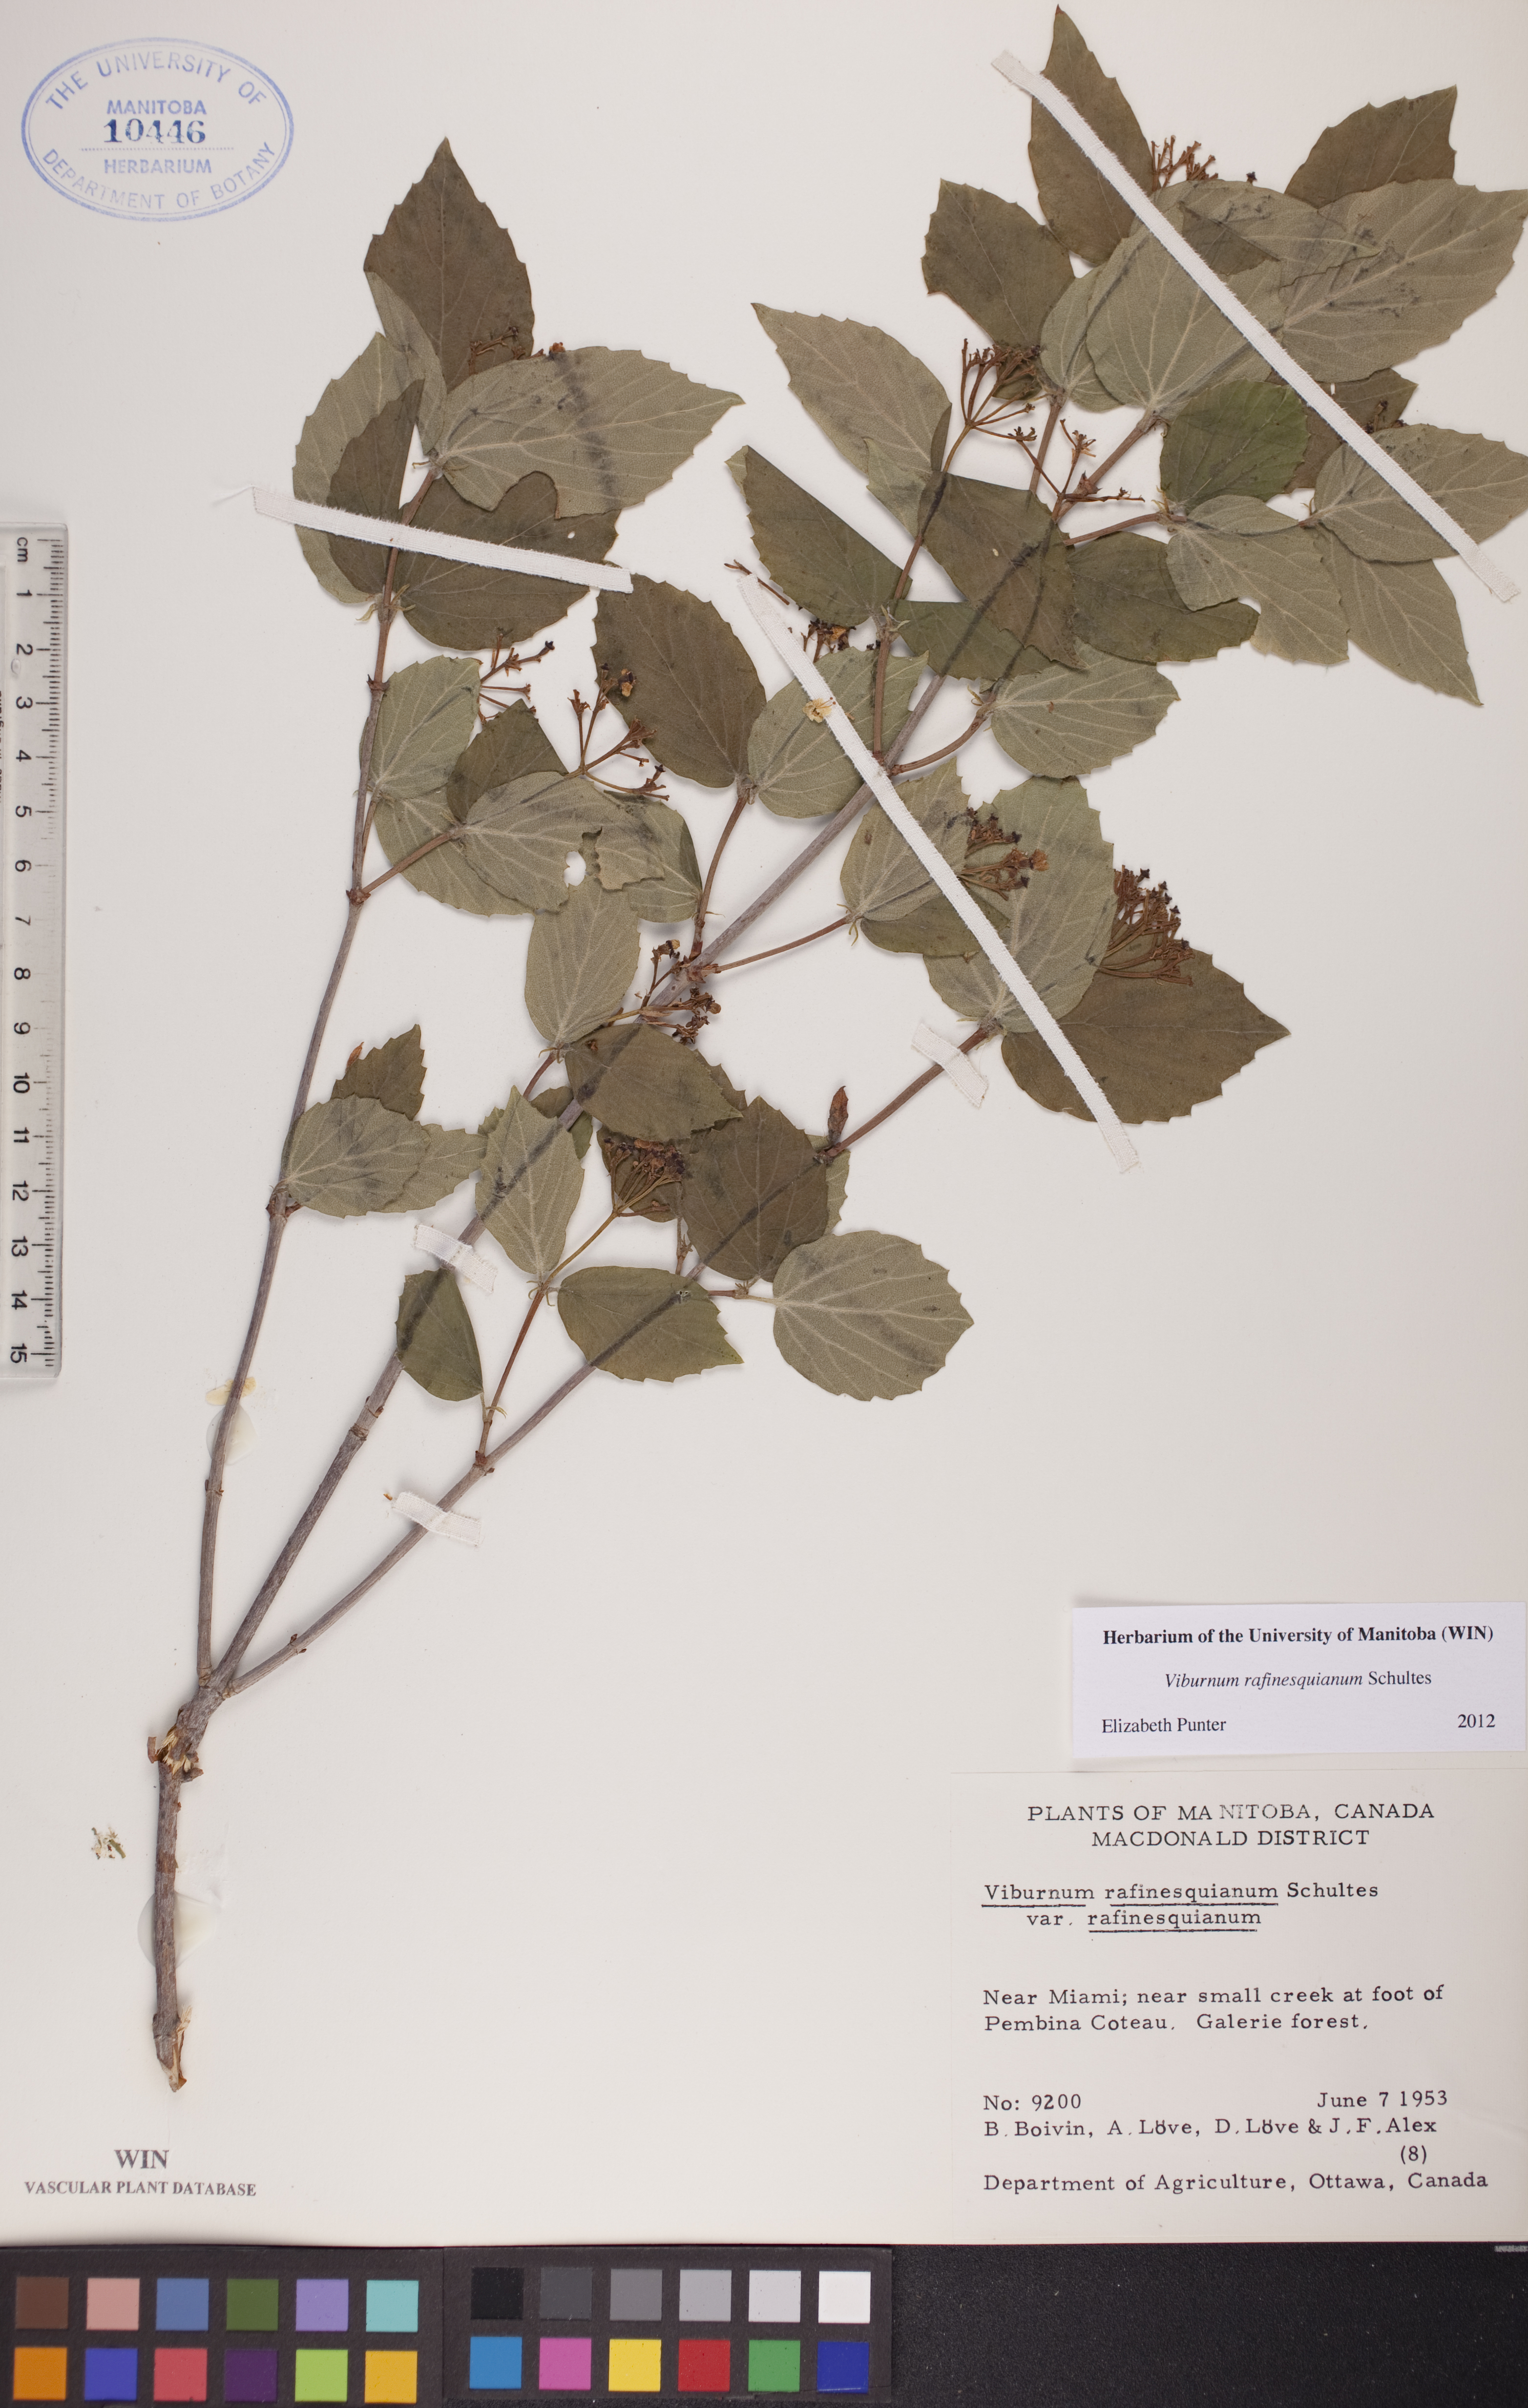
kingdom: Plantae
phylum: Tracheophyta
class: Magnoliopsida
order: Dipsacales
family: Viburnaceae
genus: Viburnum
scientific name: Viburnum rafinesquianum
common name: Downy arrow-wood
